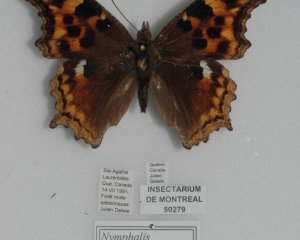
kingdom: Animalia
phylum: Arthropoda
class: Insecta
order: Lepidoptera
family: Nymphalidae
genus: Polygonia
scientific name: Polygonia vaualbum
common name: Compton Tortoiseshell
